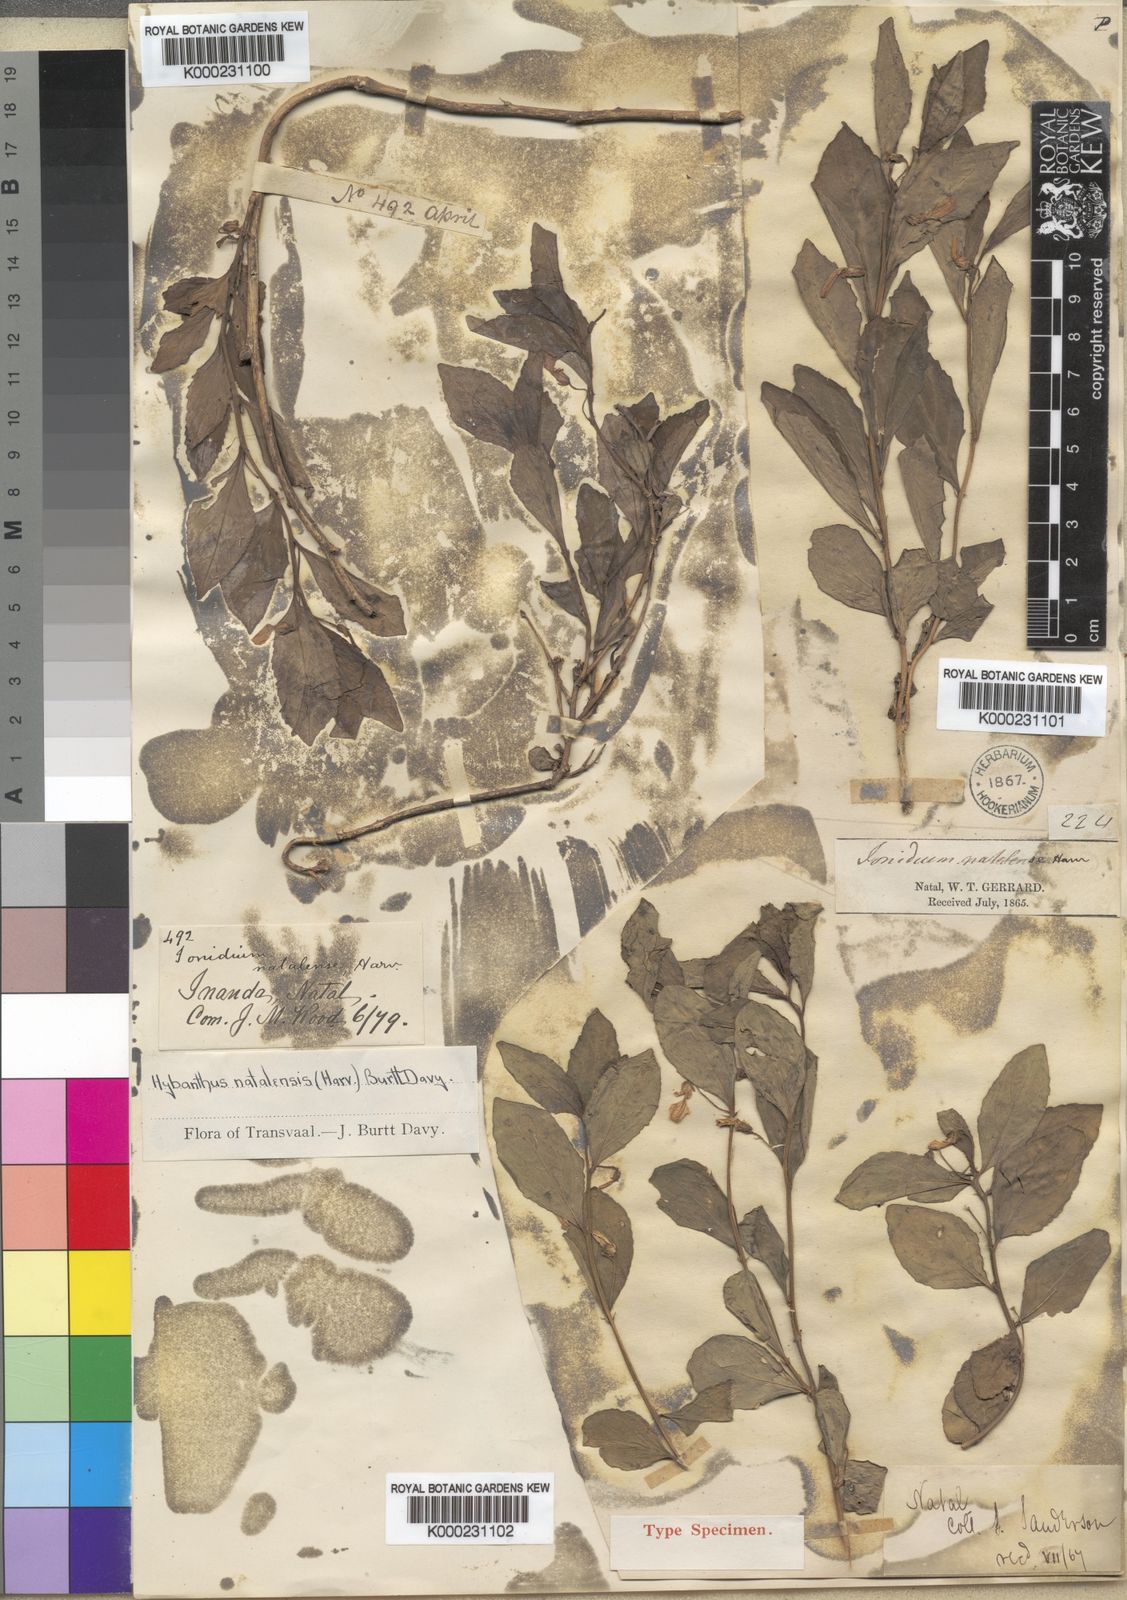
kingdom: Plantae
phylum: Tracheophyta
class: Magnoliopsida
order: Malpighiales
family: Violaceae
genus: Hybanthus
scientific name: Hybanthus capensis
